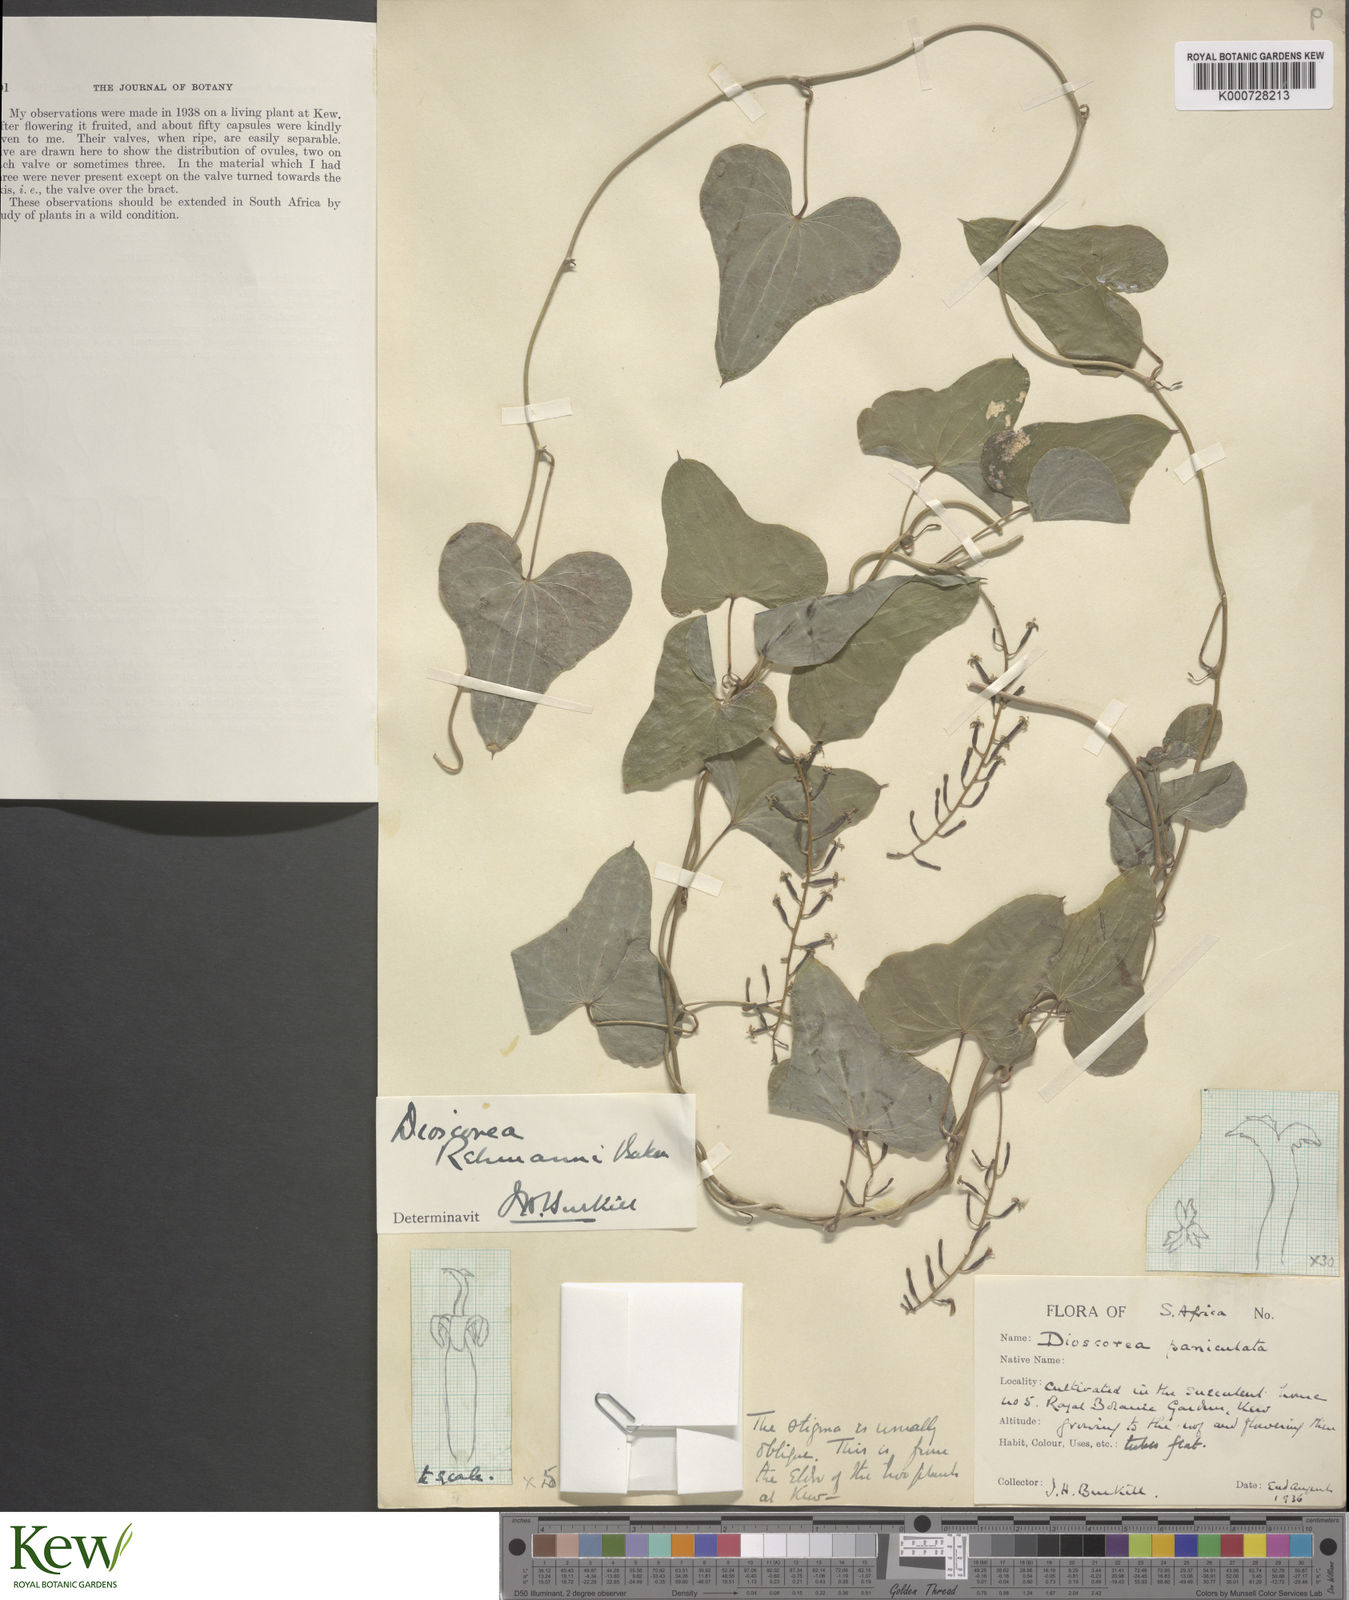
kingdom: Plantae
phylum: Tracheophyta
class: Liliopsida
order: Dioscoreales
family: Dioscoreaceae
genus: Dioscorea
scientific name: Dioscorea sylvatica
